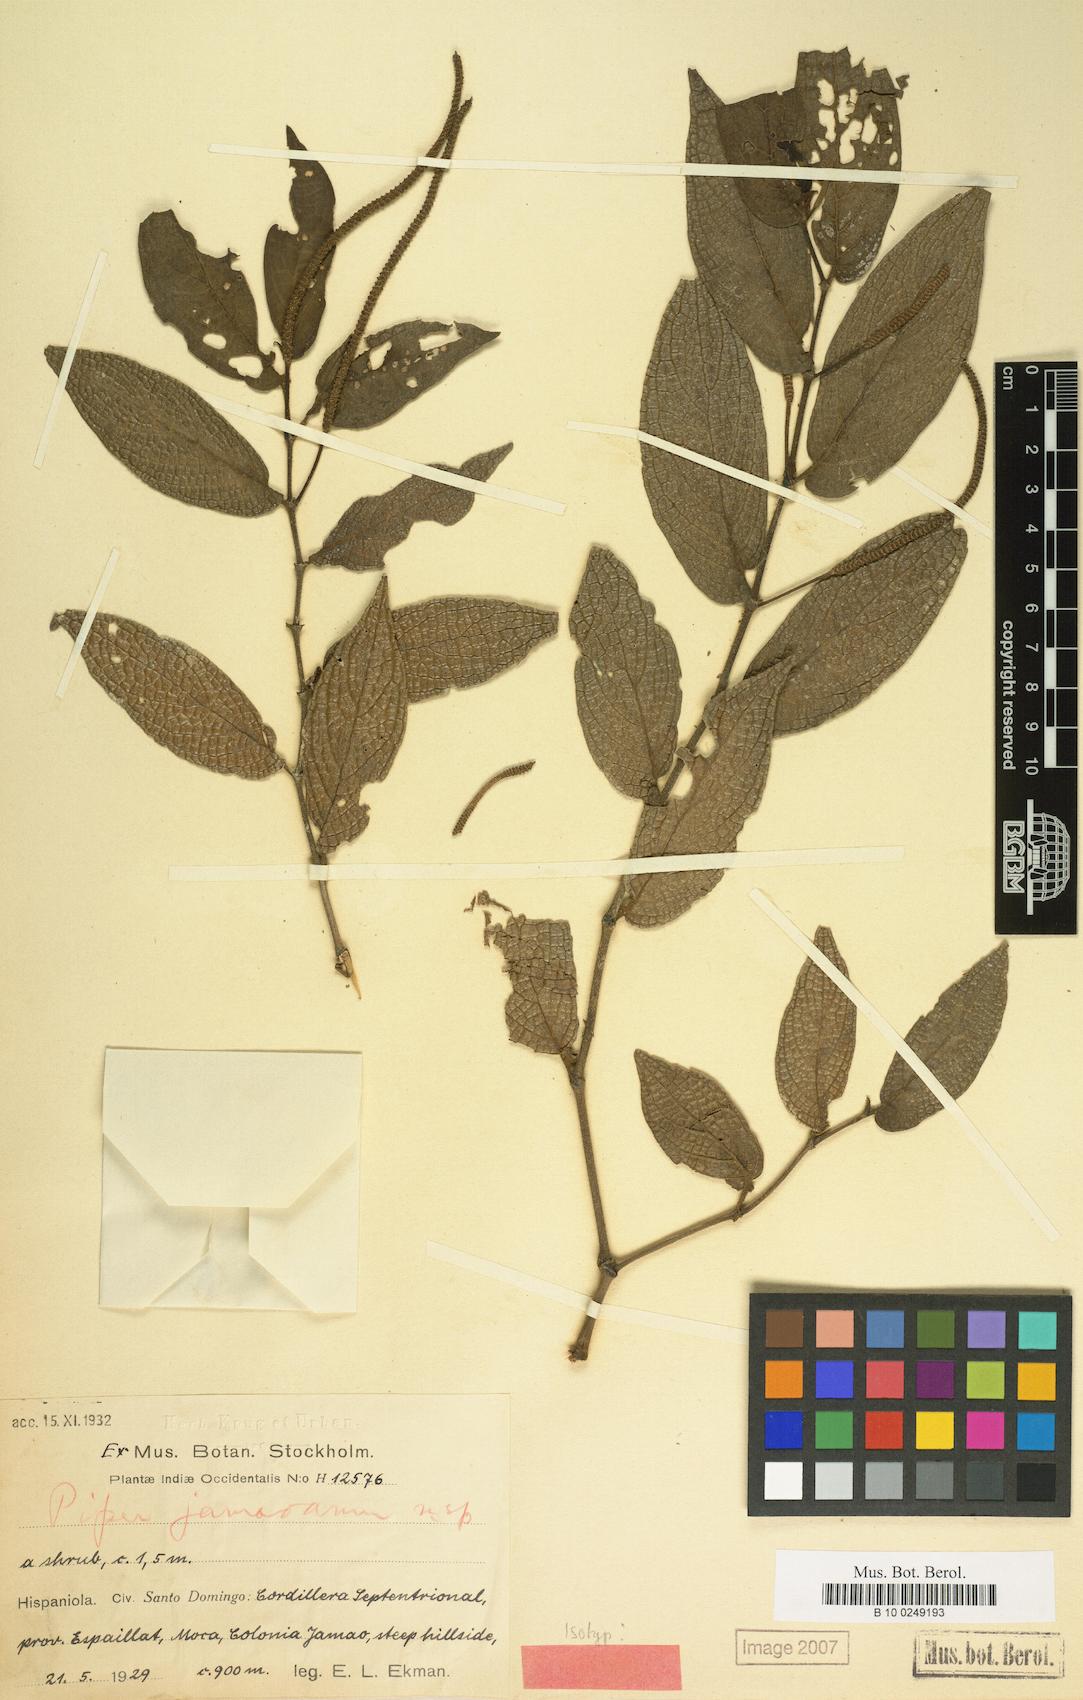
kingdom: Plantae
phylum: Tracheophyta
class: Magnoliopsida
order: Piperales
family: Piperaceae
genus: Piper
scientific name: Piper confusum
